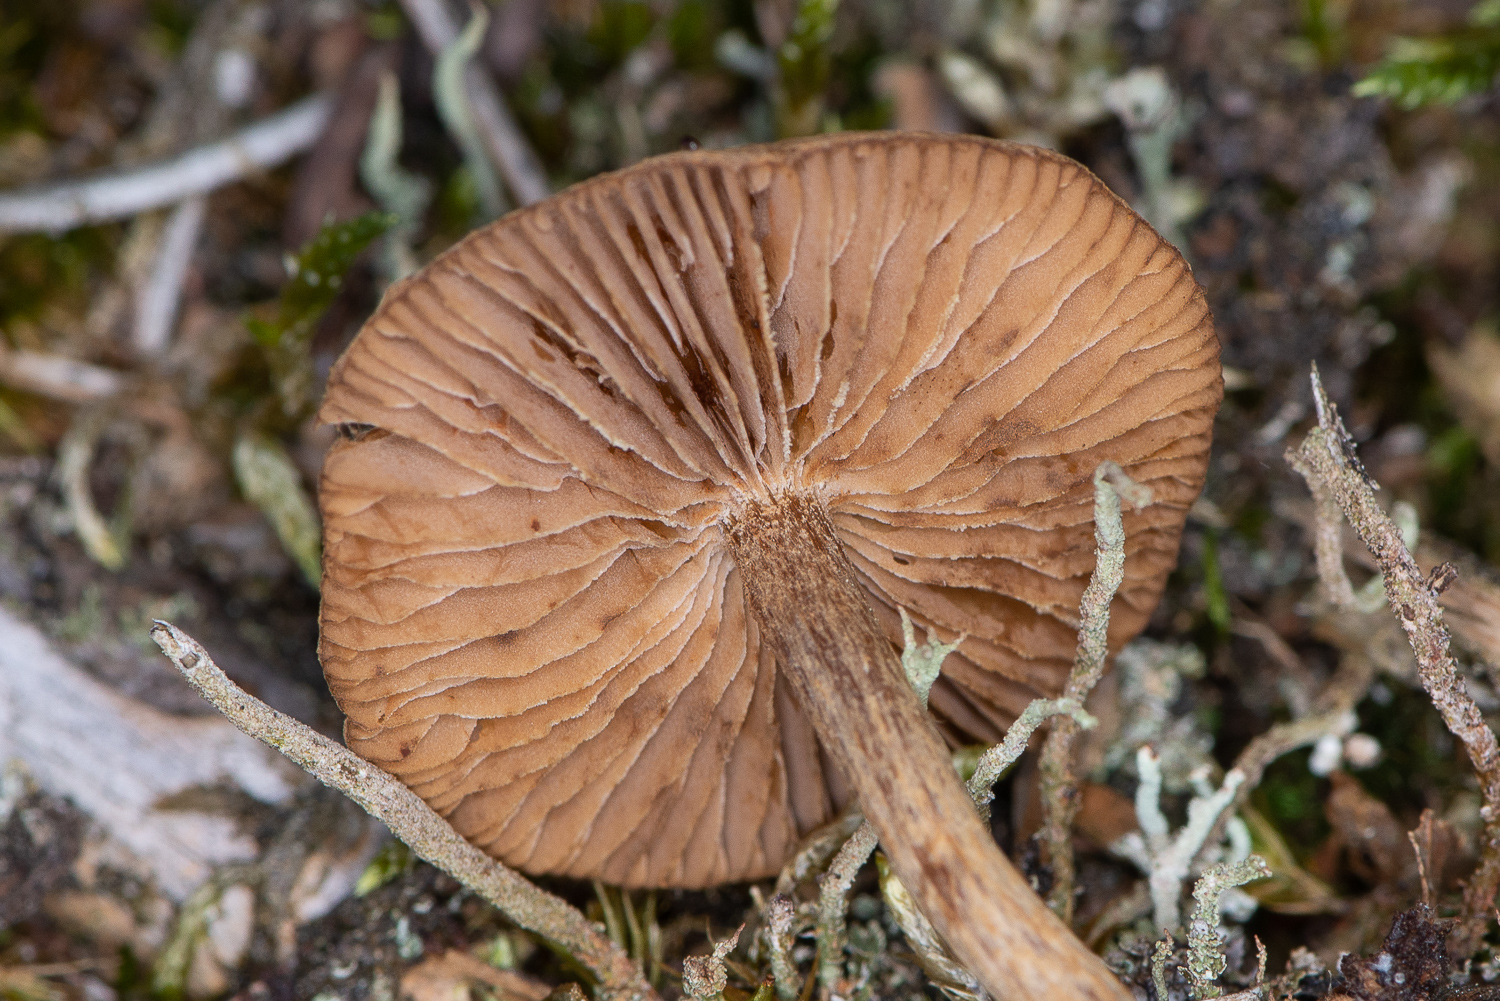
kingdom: Fungi
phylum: Basidiomycota
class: Agaricomycetes
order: Agaricales
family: Inocybaceae
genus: Inocybe
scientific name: Inocybe
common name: trævlhat
